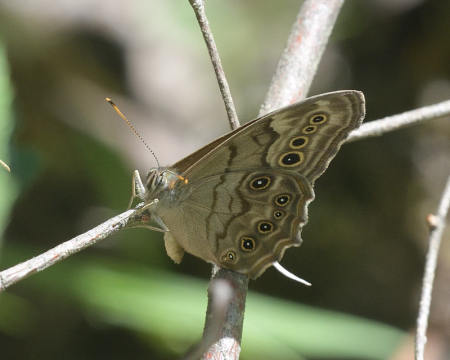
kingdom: Animalia
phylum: Arthropoda
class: Insecta
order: Lepidoptera
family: Nymphalidae
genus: Lethe
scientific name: Lethe anthedon
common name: Northern Pearly-Eye
